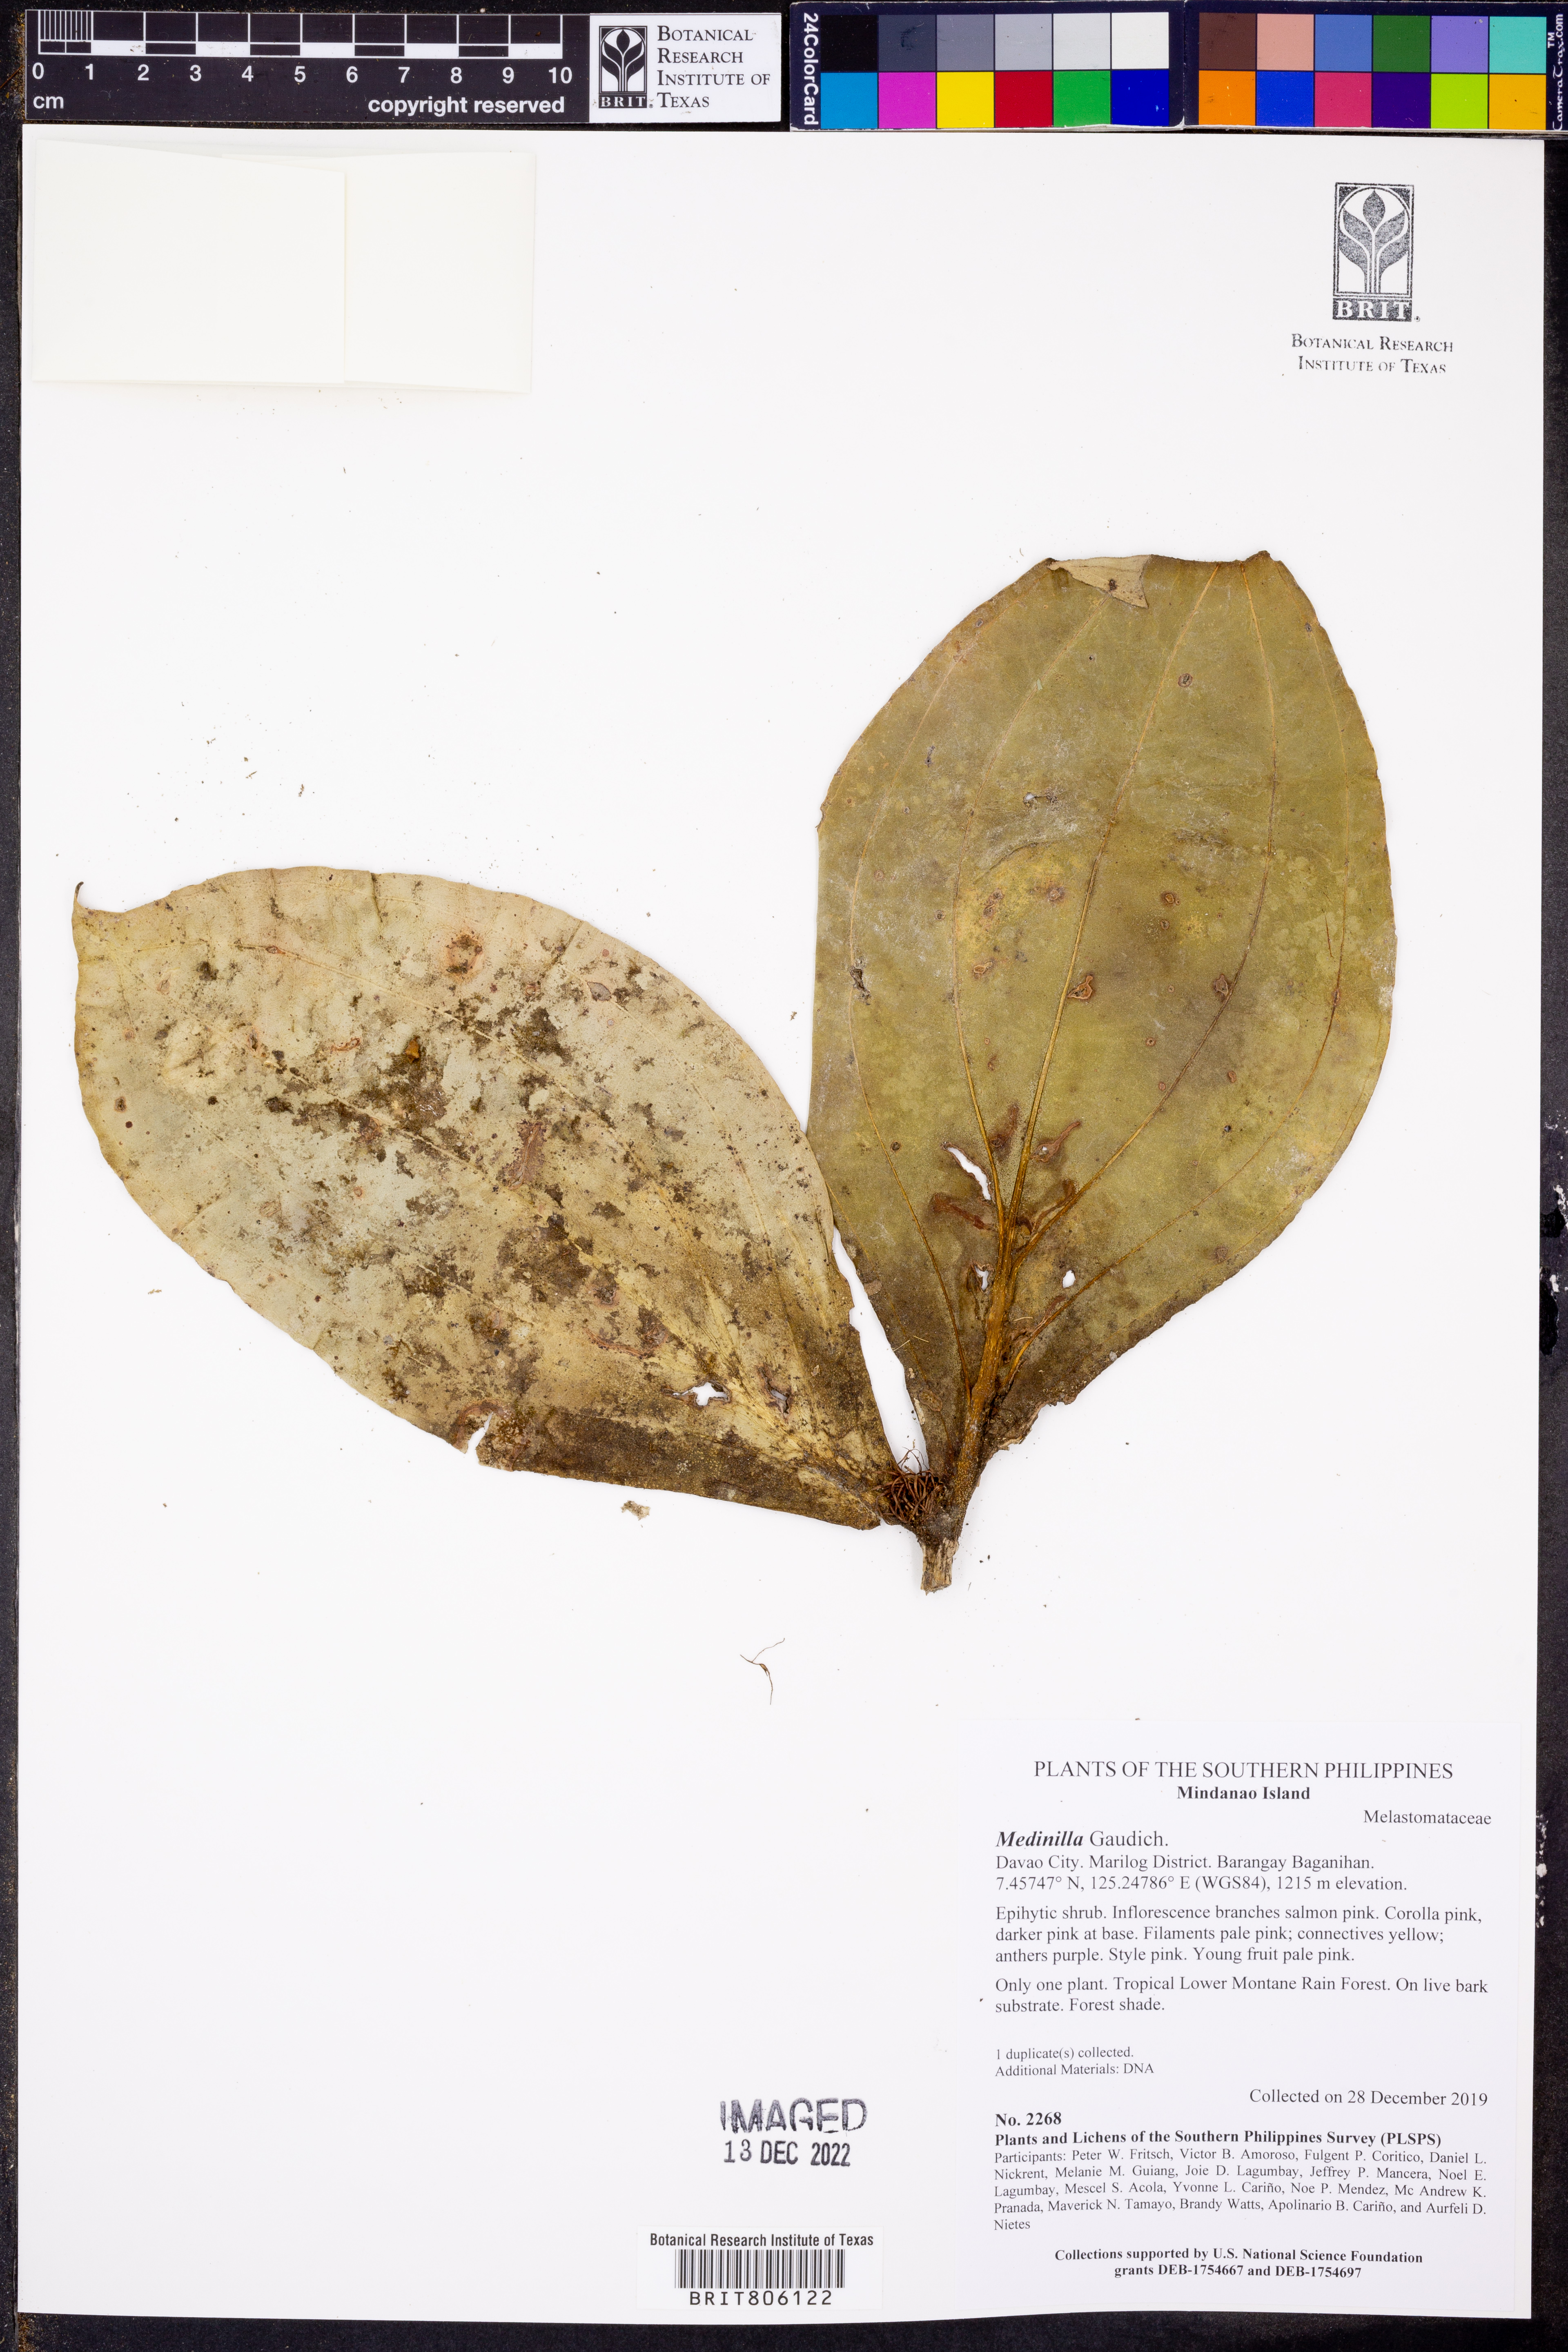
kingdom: Plantae
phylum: Tracheophyta
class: Magnoliopsida
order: Myrtales
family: Melastomataceae
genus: Medinilla
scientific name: Medinilla
